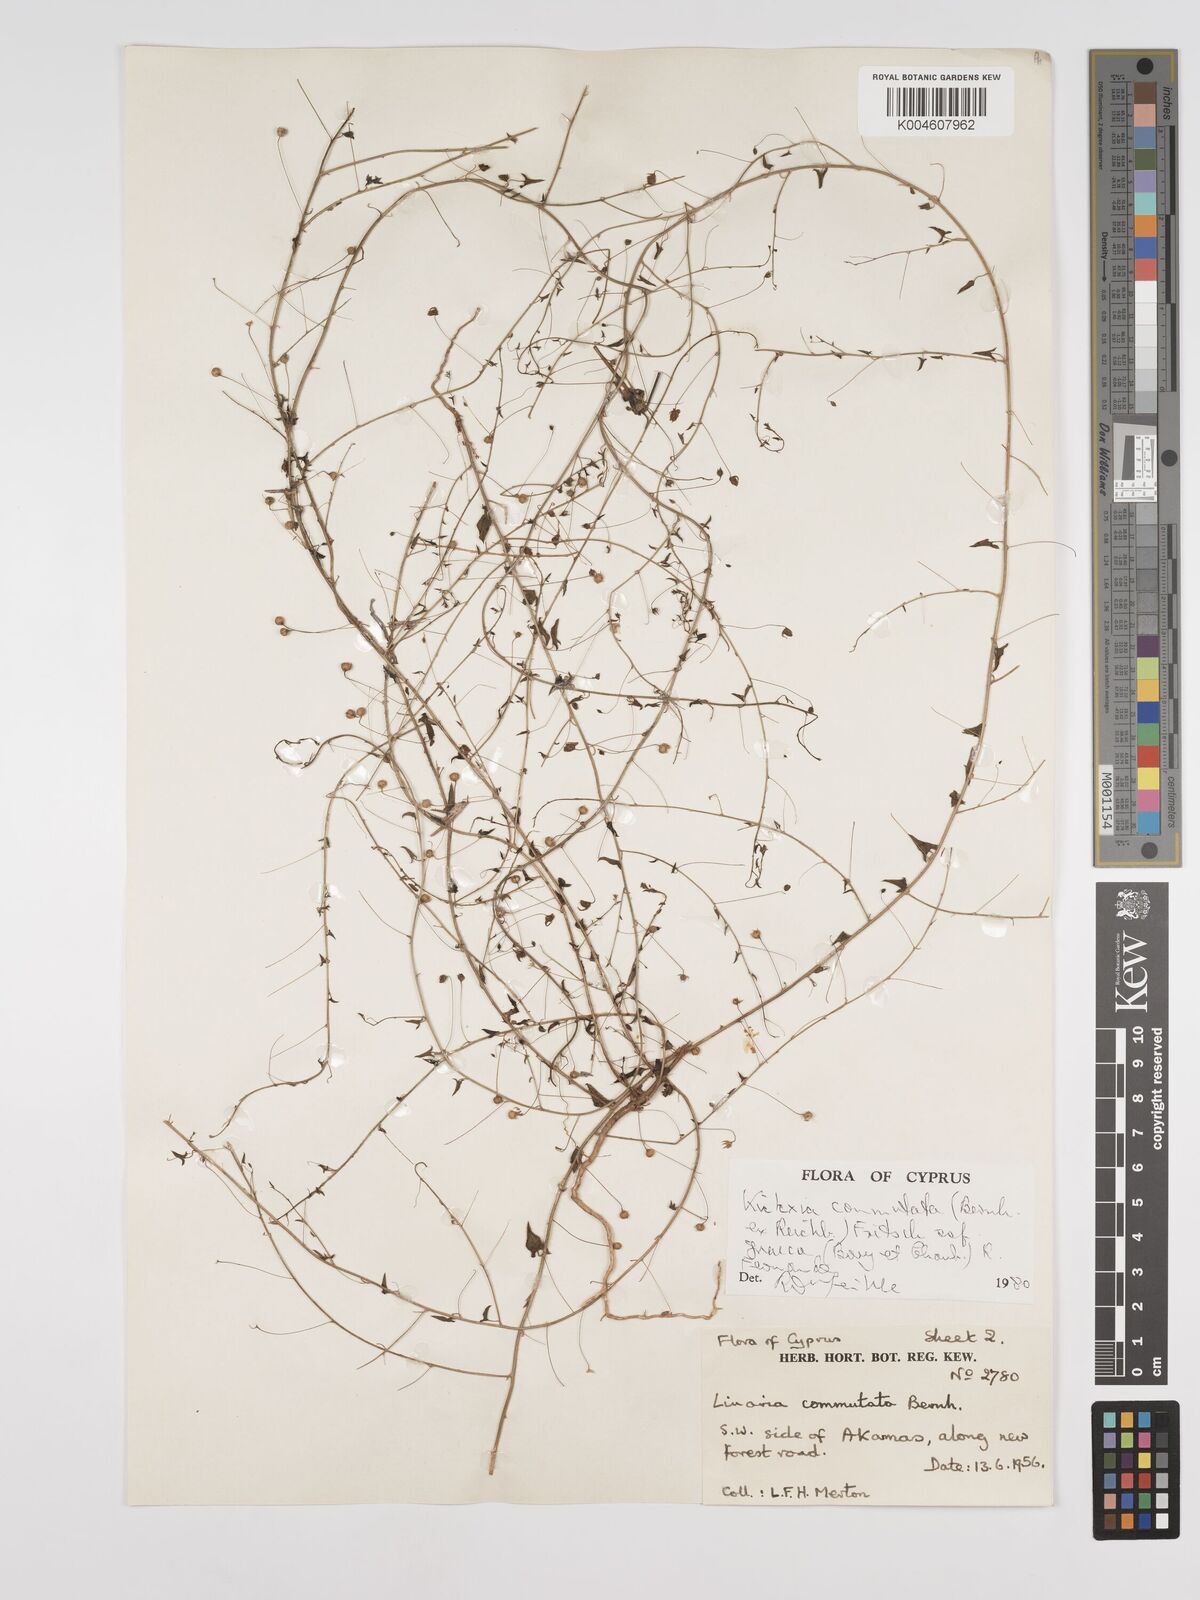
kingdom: Plantae
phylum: Tracheophyta
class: Magnoliopsida
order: Lamiales
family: Plantaginaceae
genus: Kickxia
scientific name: Kickxia commutata
